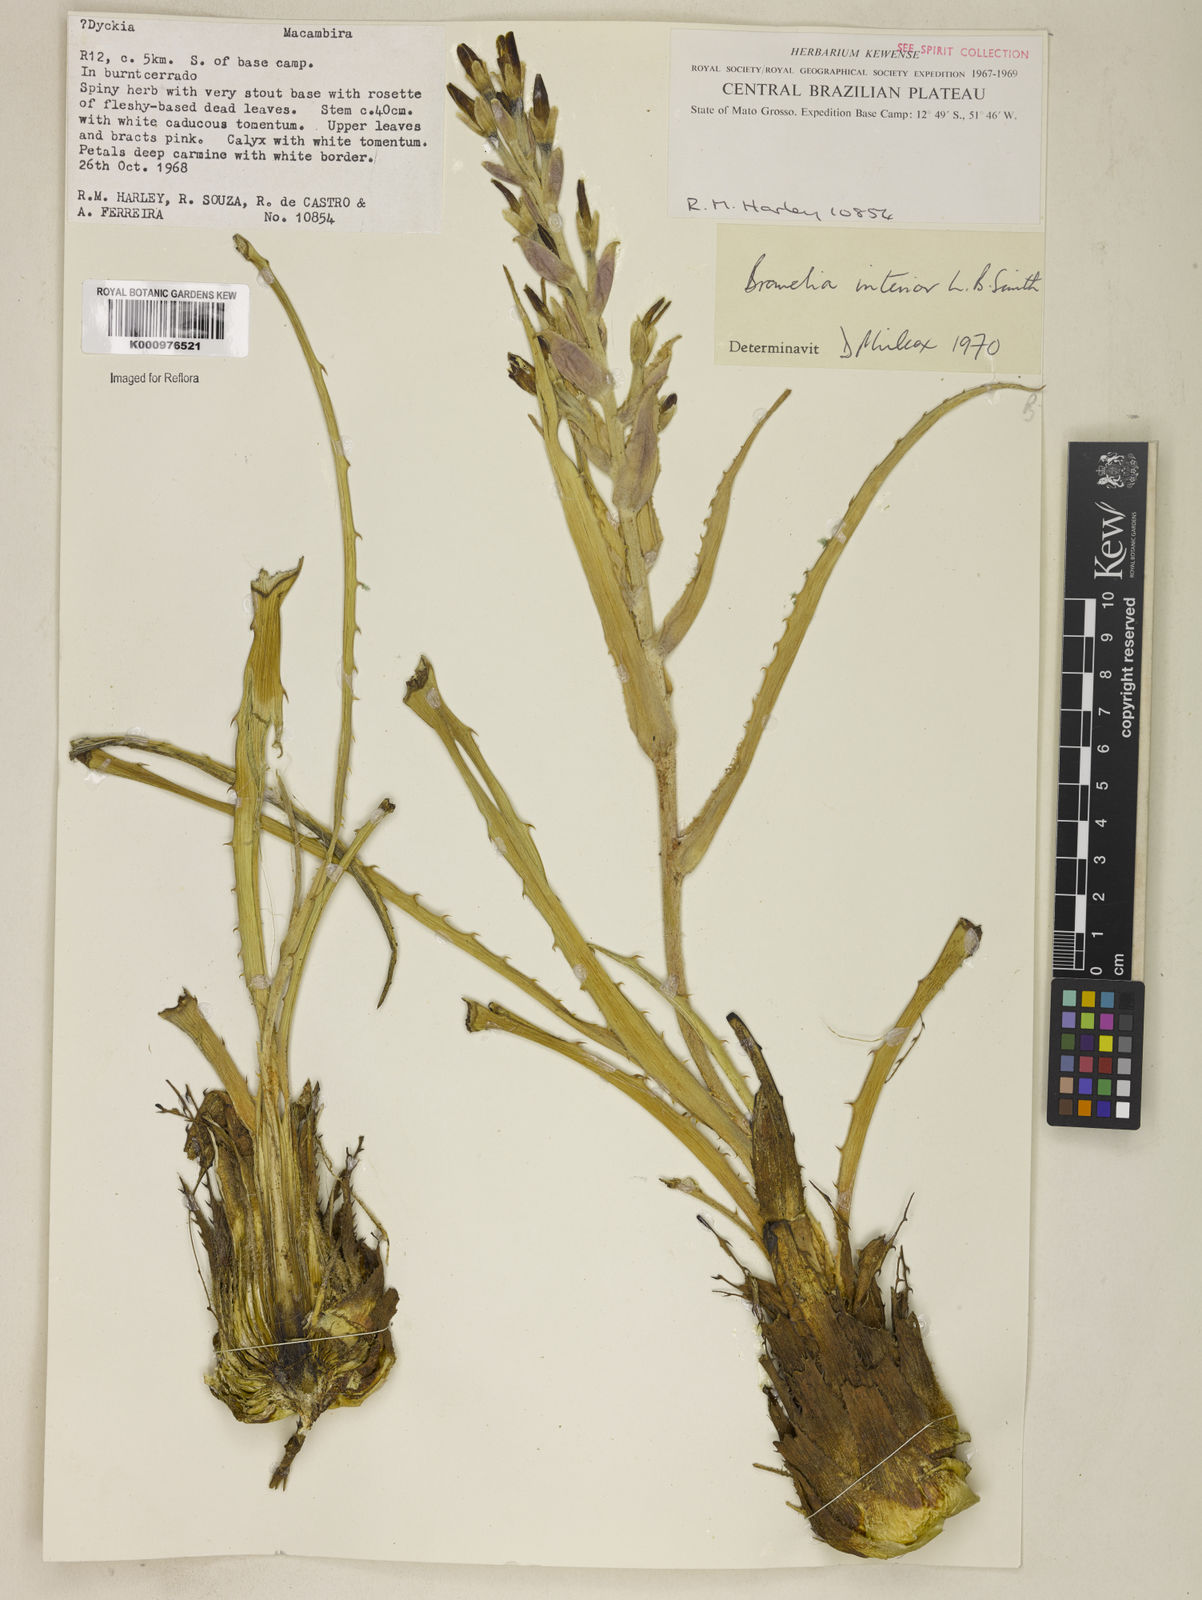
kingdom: Plantae
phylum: Tracheophyta
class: Liliopsida
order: Poales
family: Bromeliaceae
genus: Bromelia
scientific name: Bromelia interior
